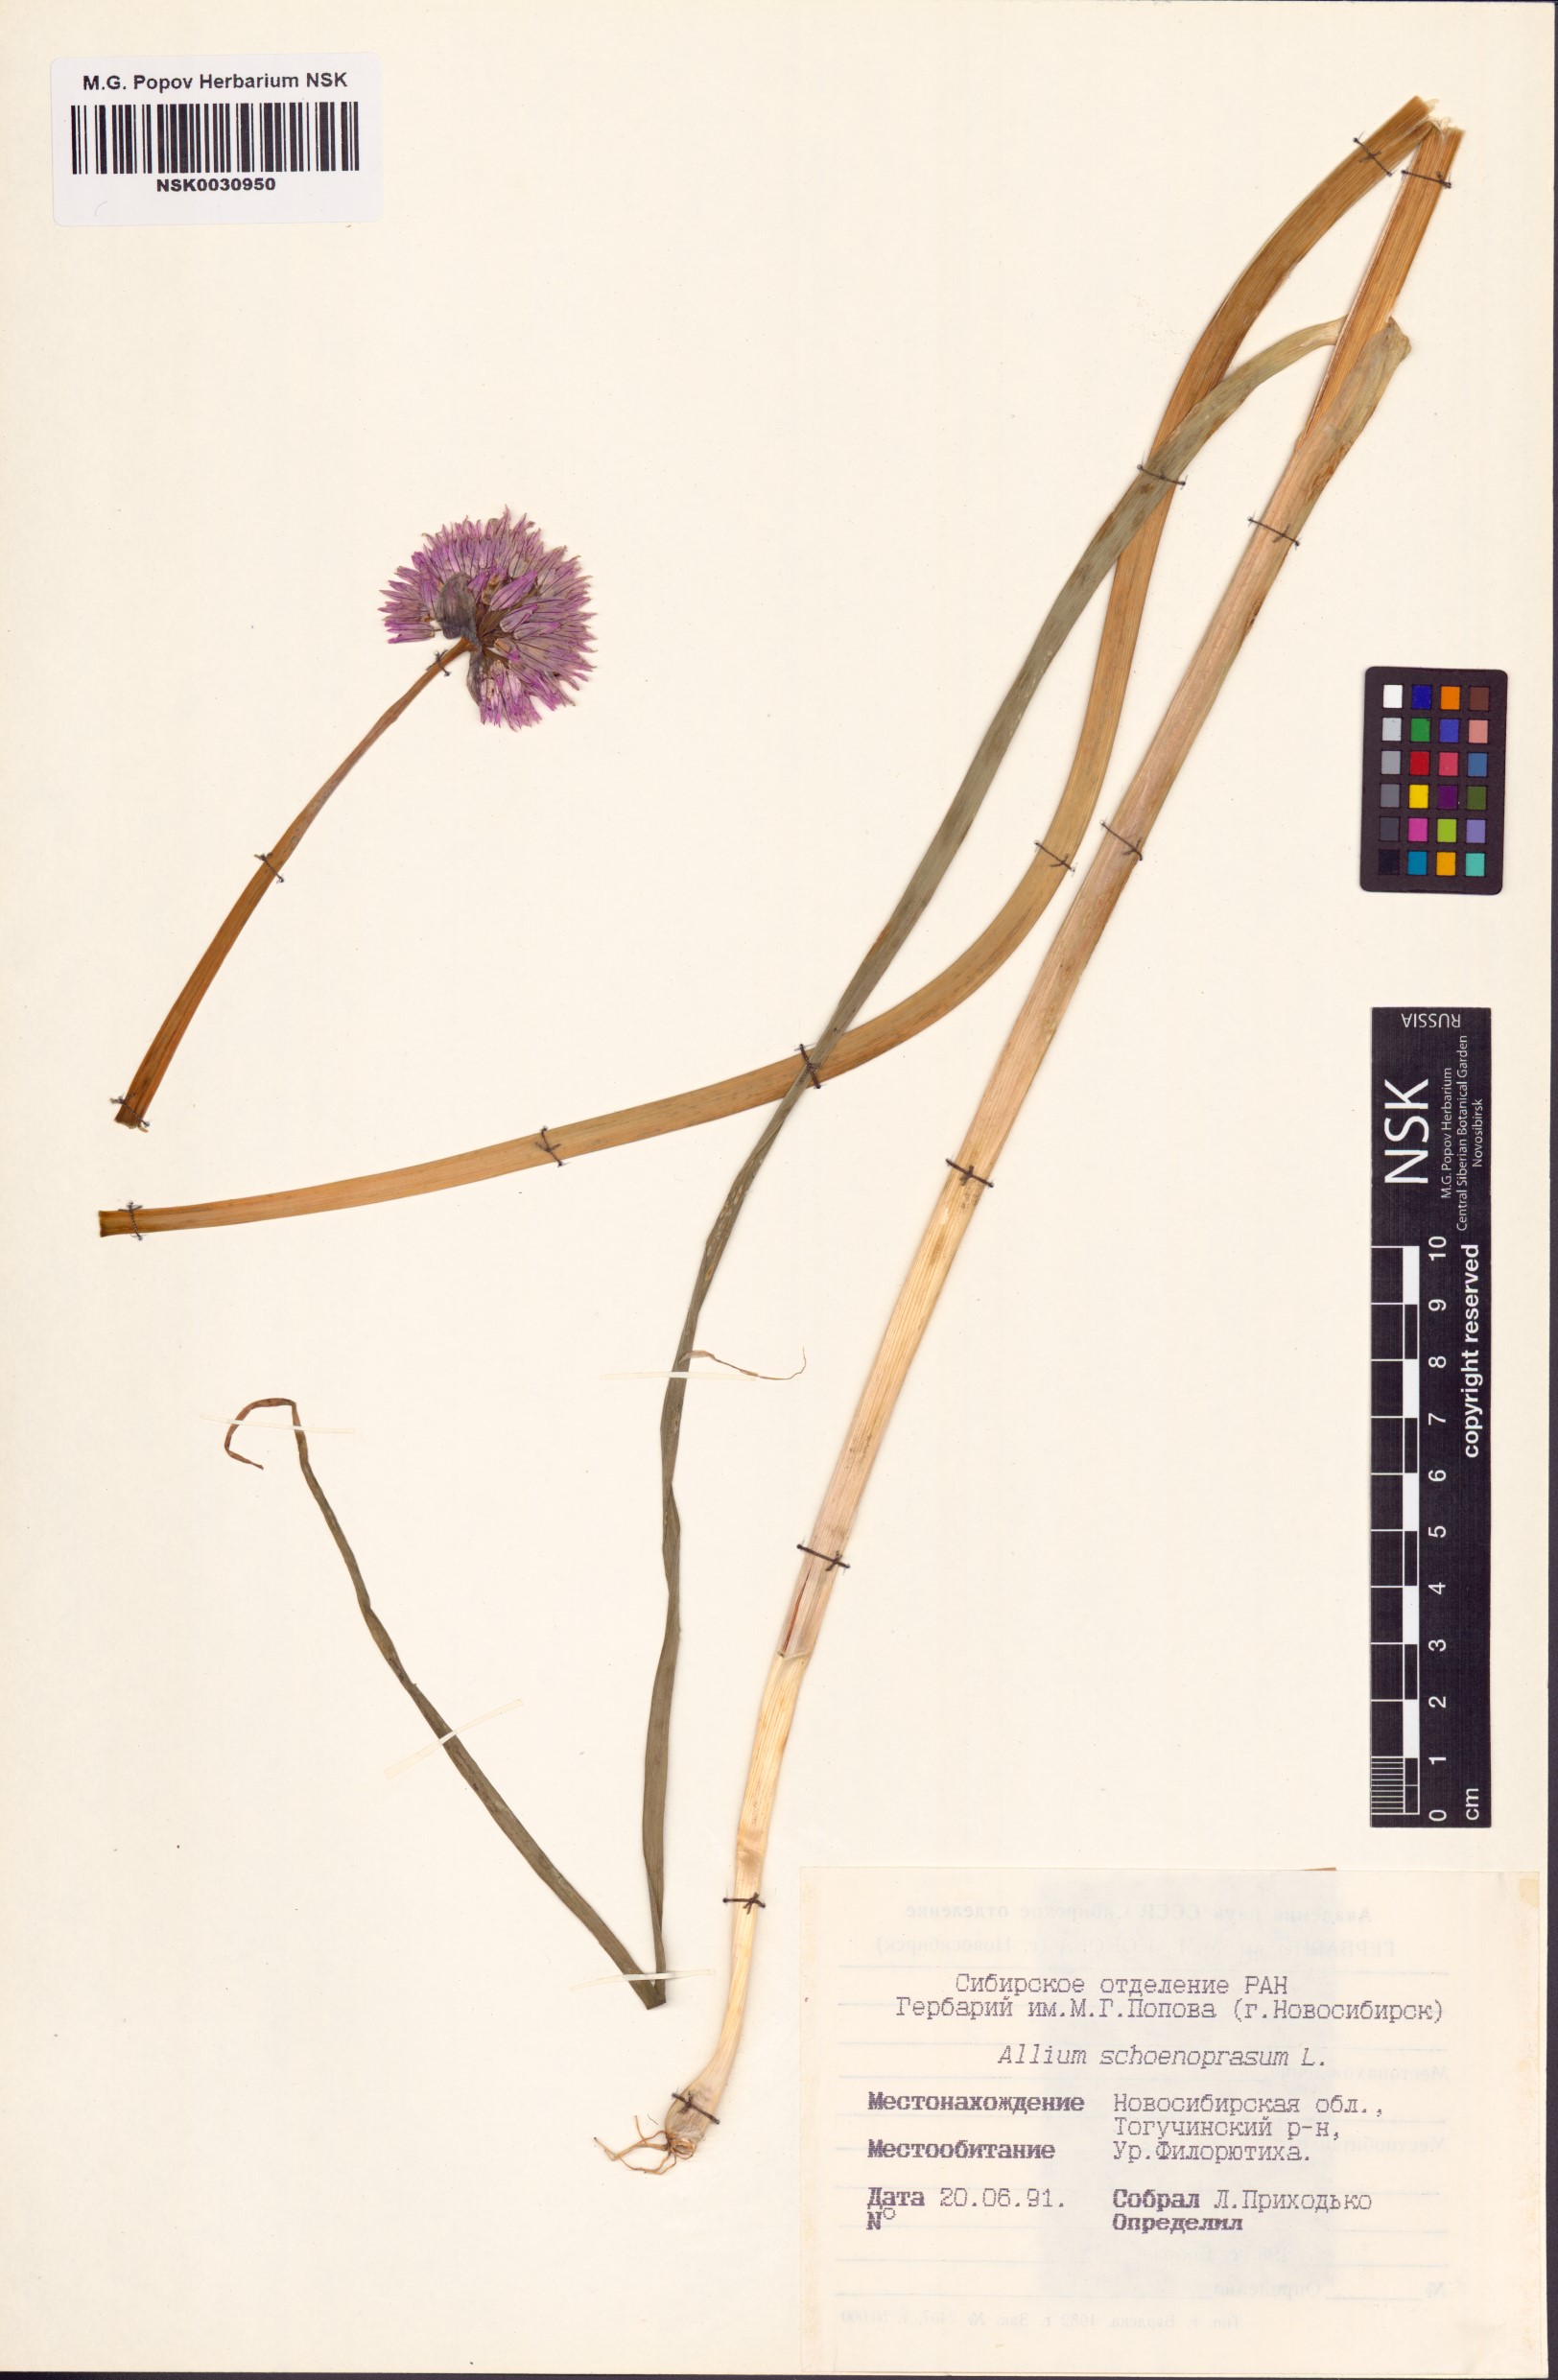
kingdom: Plantae
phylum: Tracheophyta
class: Liliopsida
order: Asparagales
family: Amaryllidaceae
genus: Allium
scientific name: Allium schoenoprasum
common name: Chives
